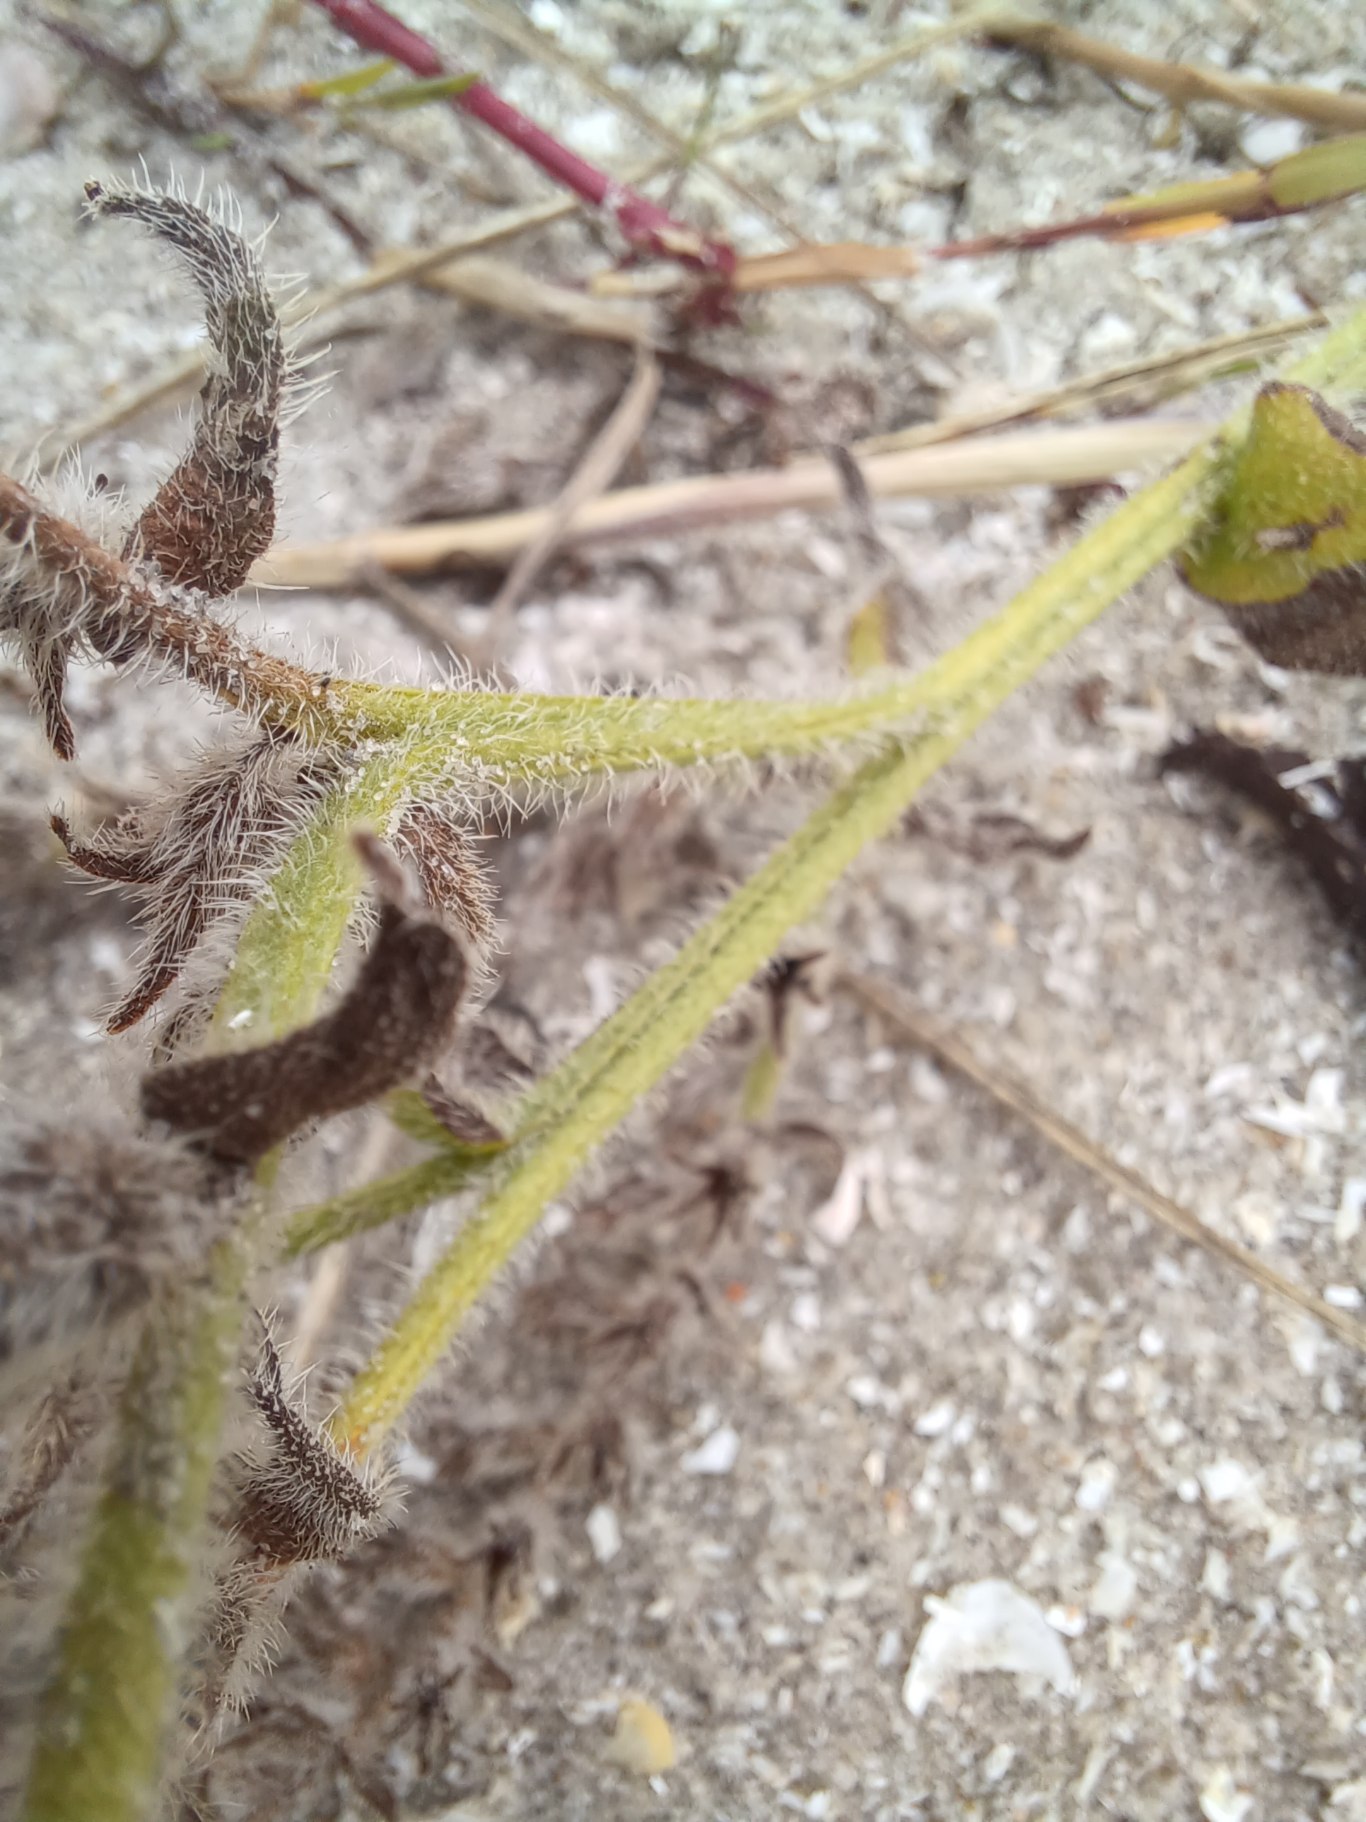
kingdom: Plantae
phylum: Tracheophyta
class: Magnoliopsida
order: Boraginales
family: Boraginaceae
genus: Anchusa
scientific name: Anchusa officinalis
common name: Læge-oksetunge
